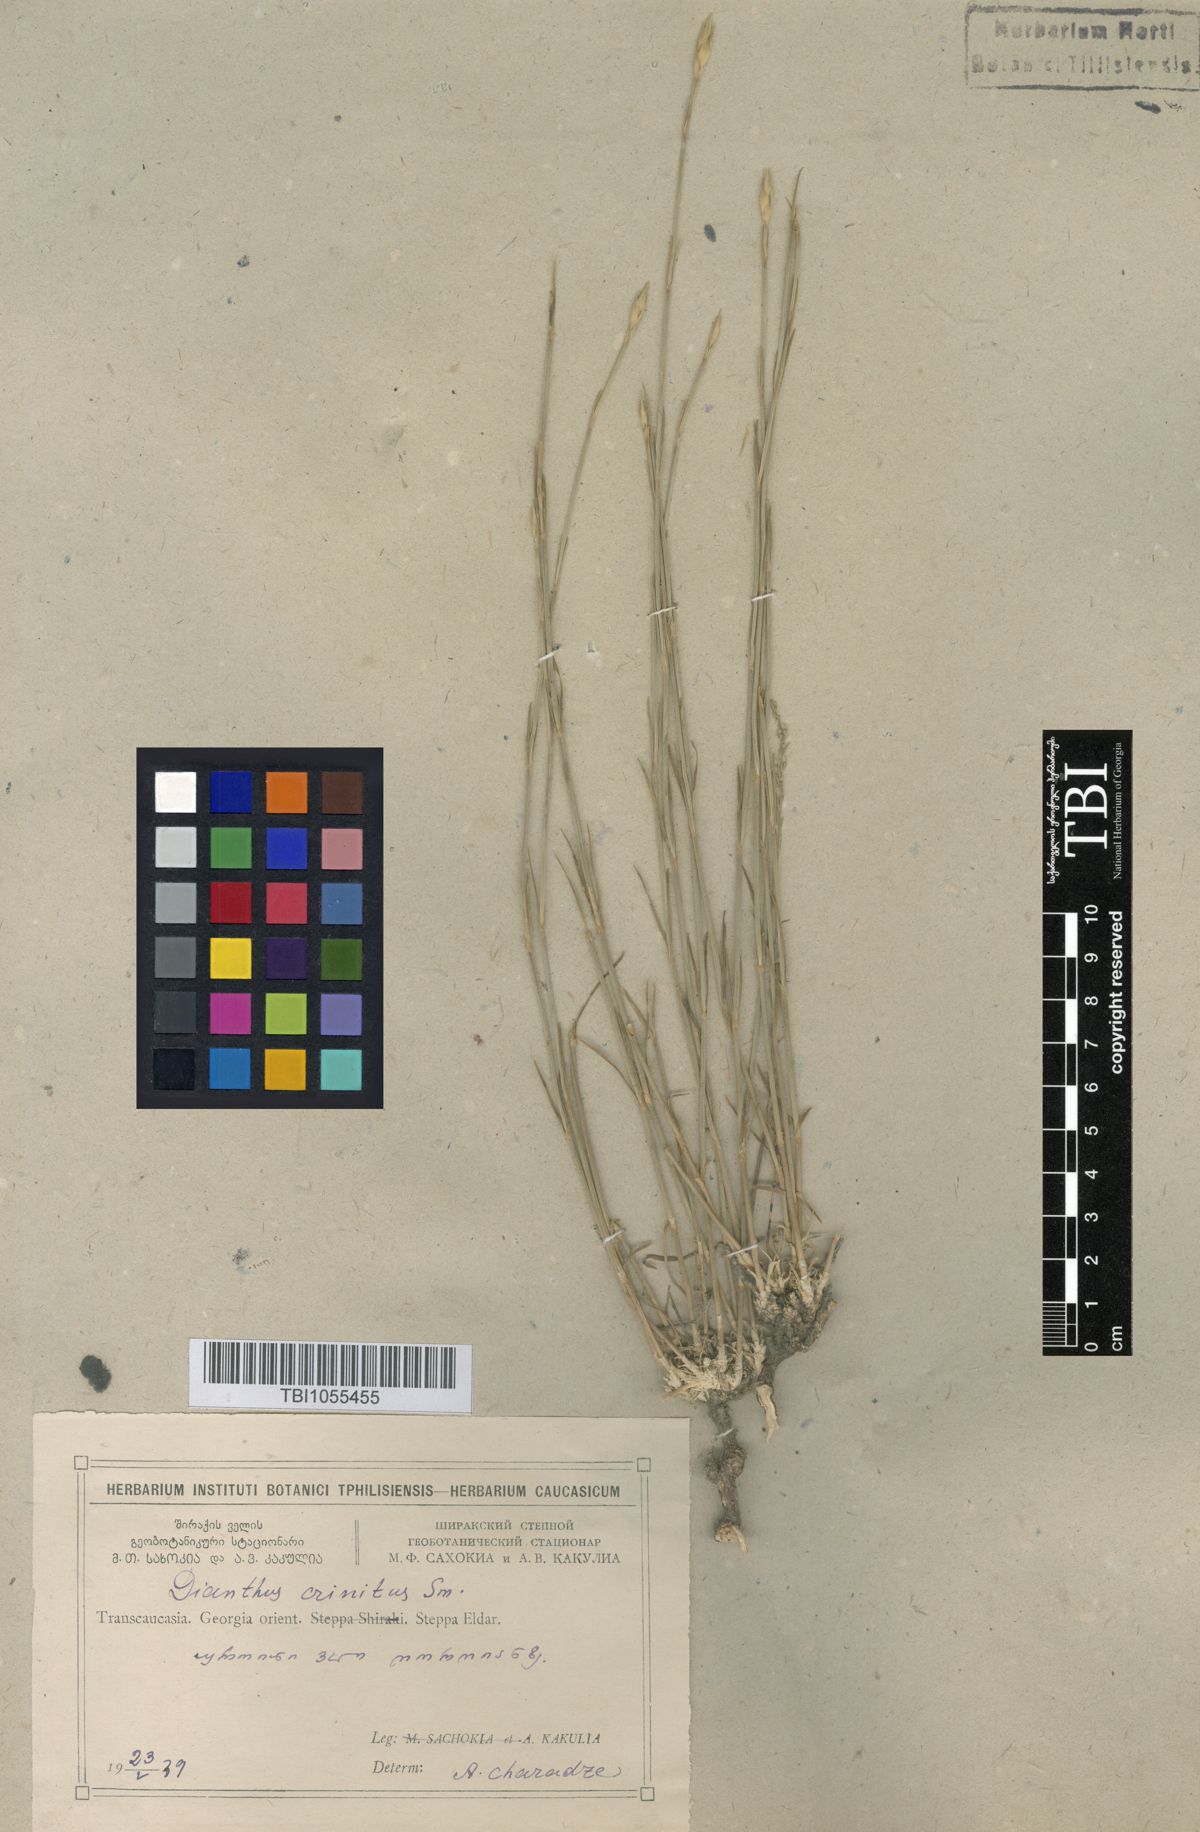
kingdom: Plantae
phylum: Tracheophyta
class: Magnoliopsida
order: Caryophyllales
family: Caryophyllaceae
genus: Dianthus
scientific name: Dianthus crinitus
